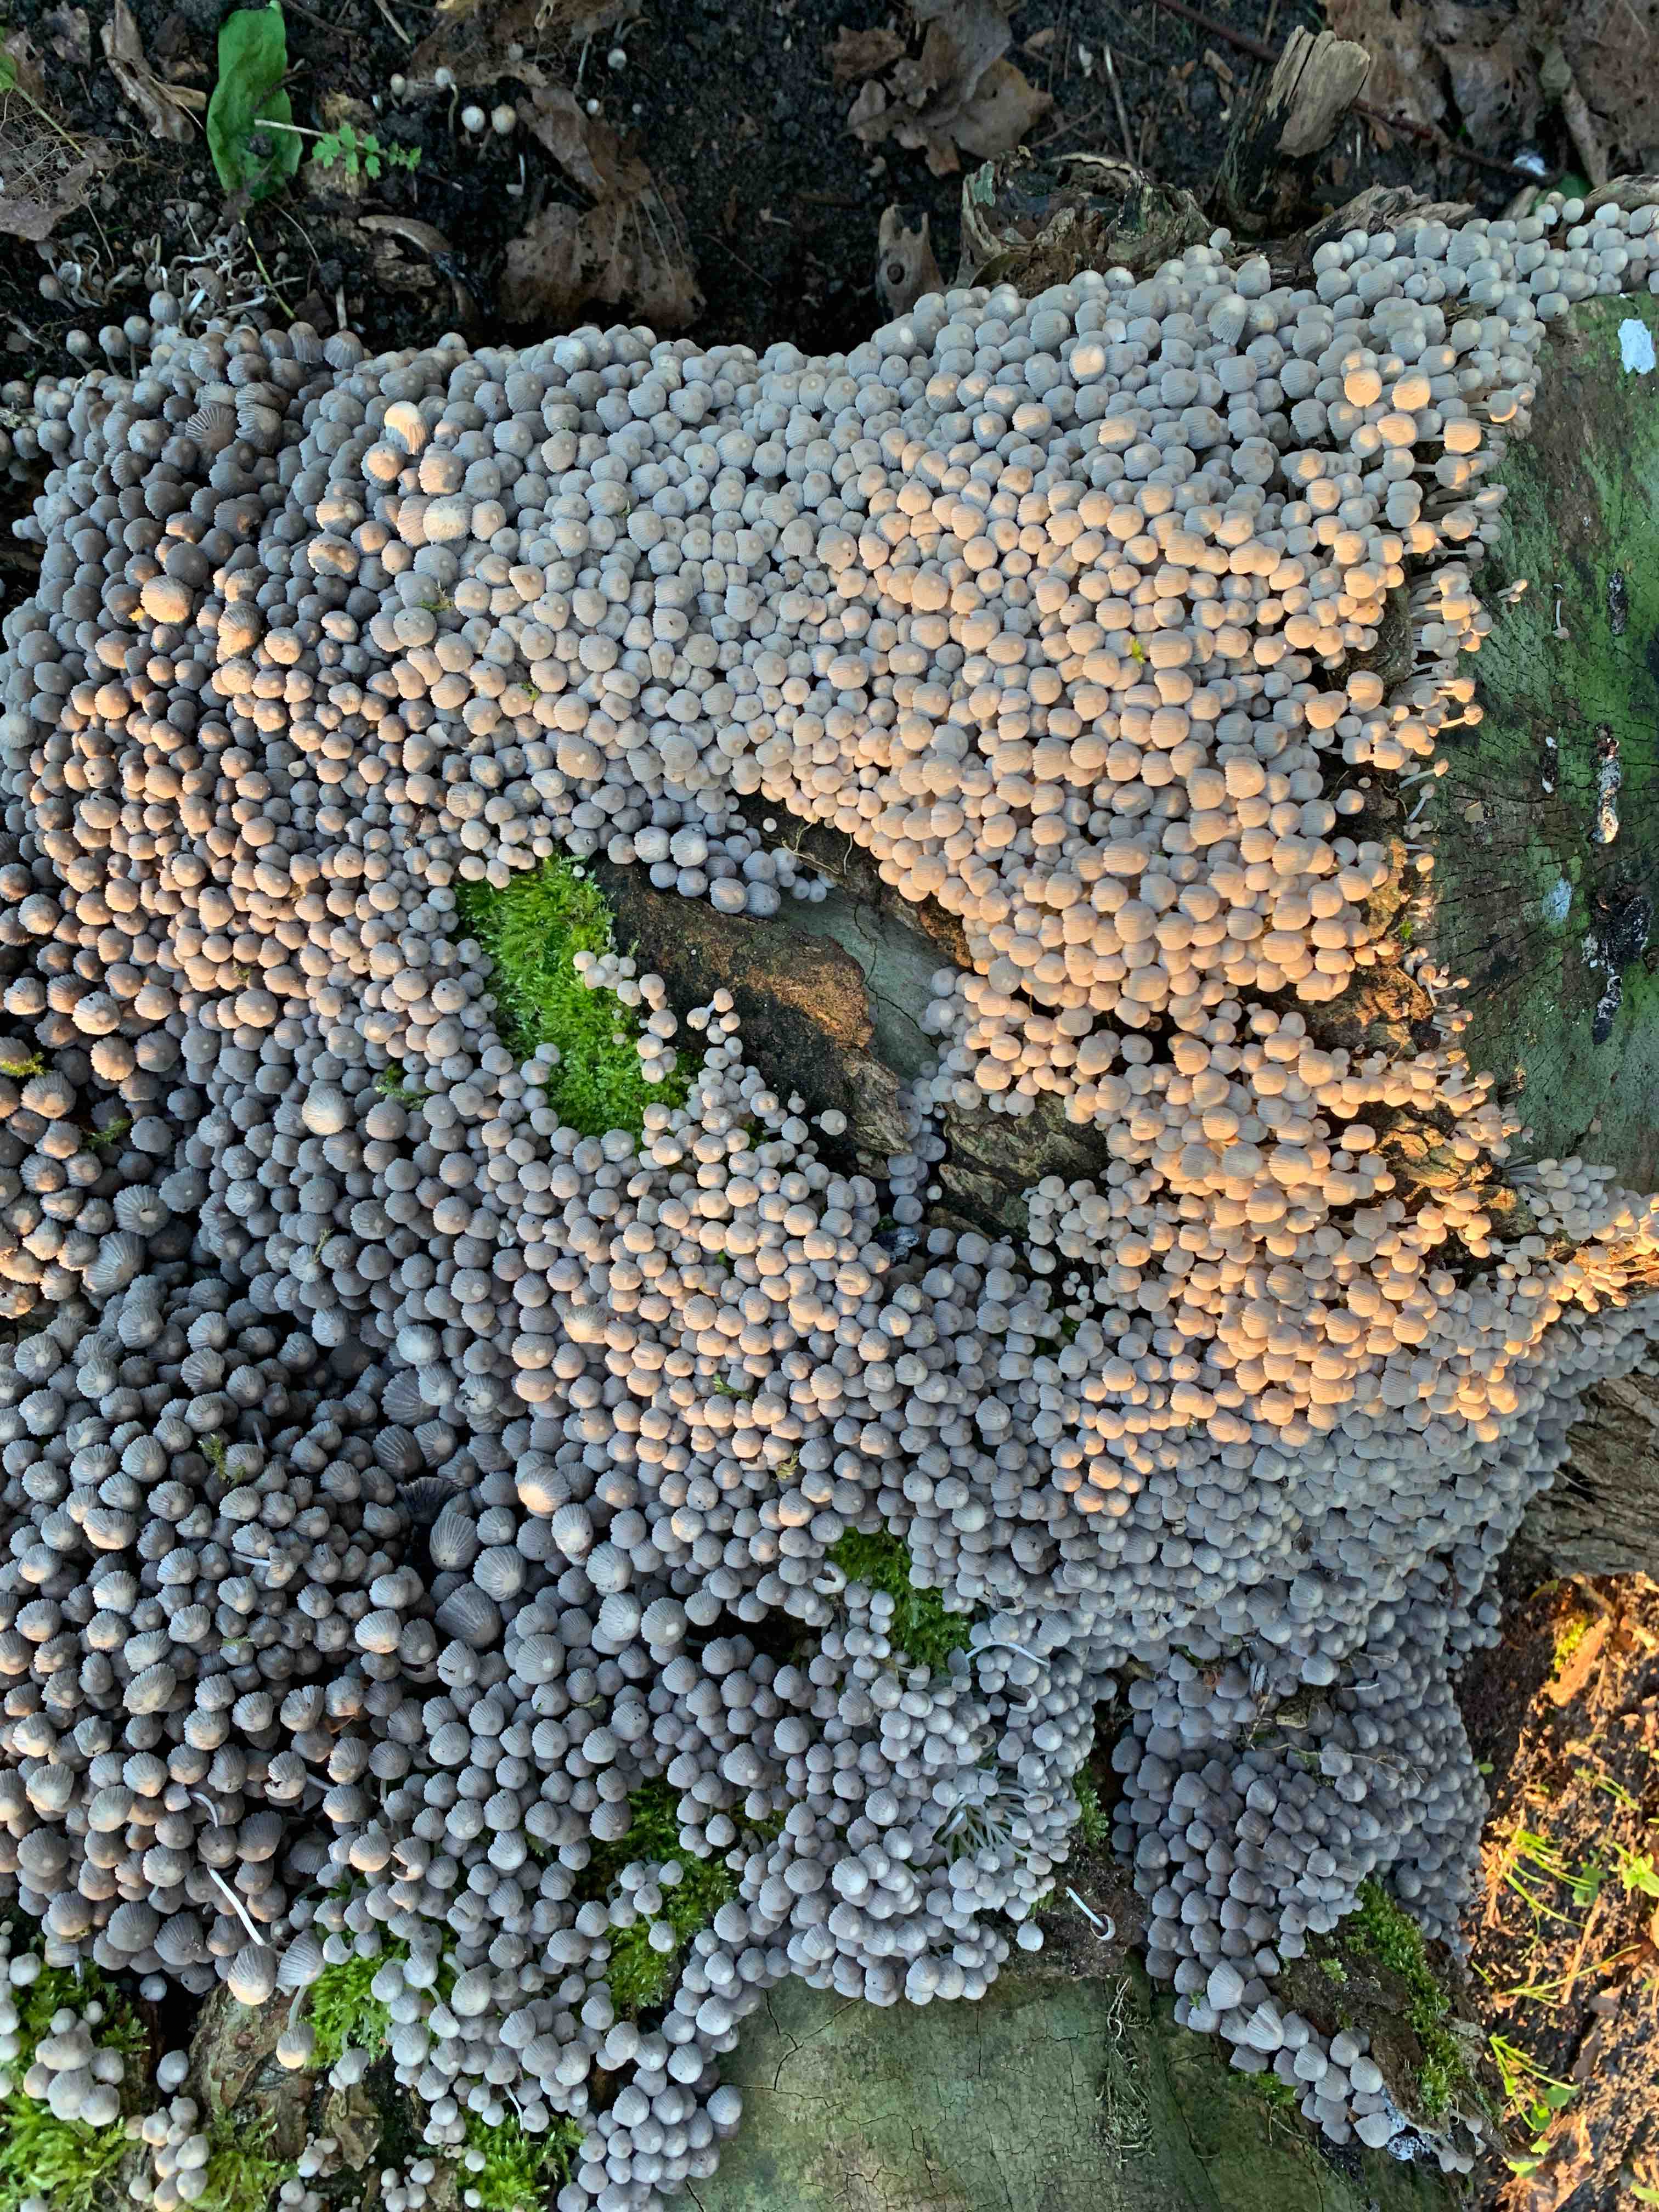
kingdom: Fungi
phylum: Basidiomycota
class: Agaricomycetes
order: Agaricales
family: Psathyrellaceae
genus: Coprinellus
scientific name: Coprinellus disseminatus
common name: bredsået blækhat
